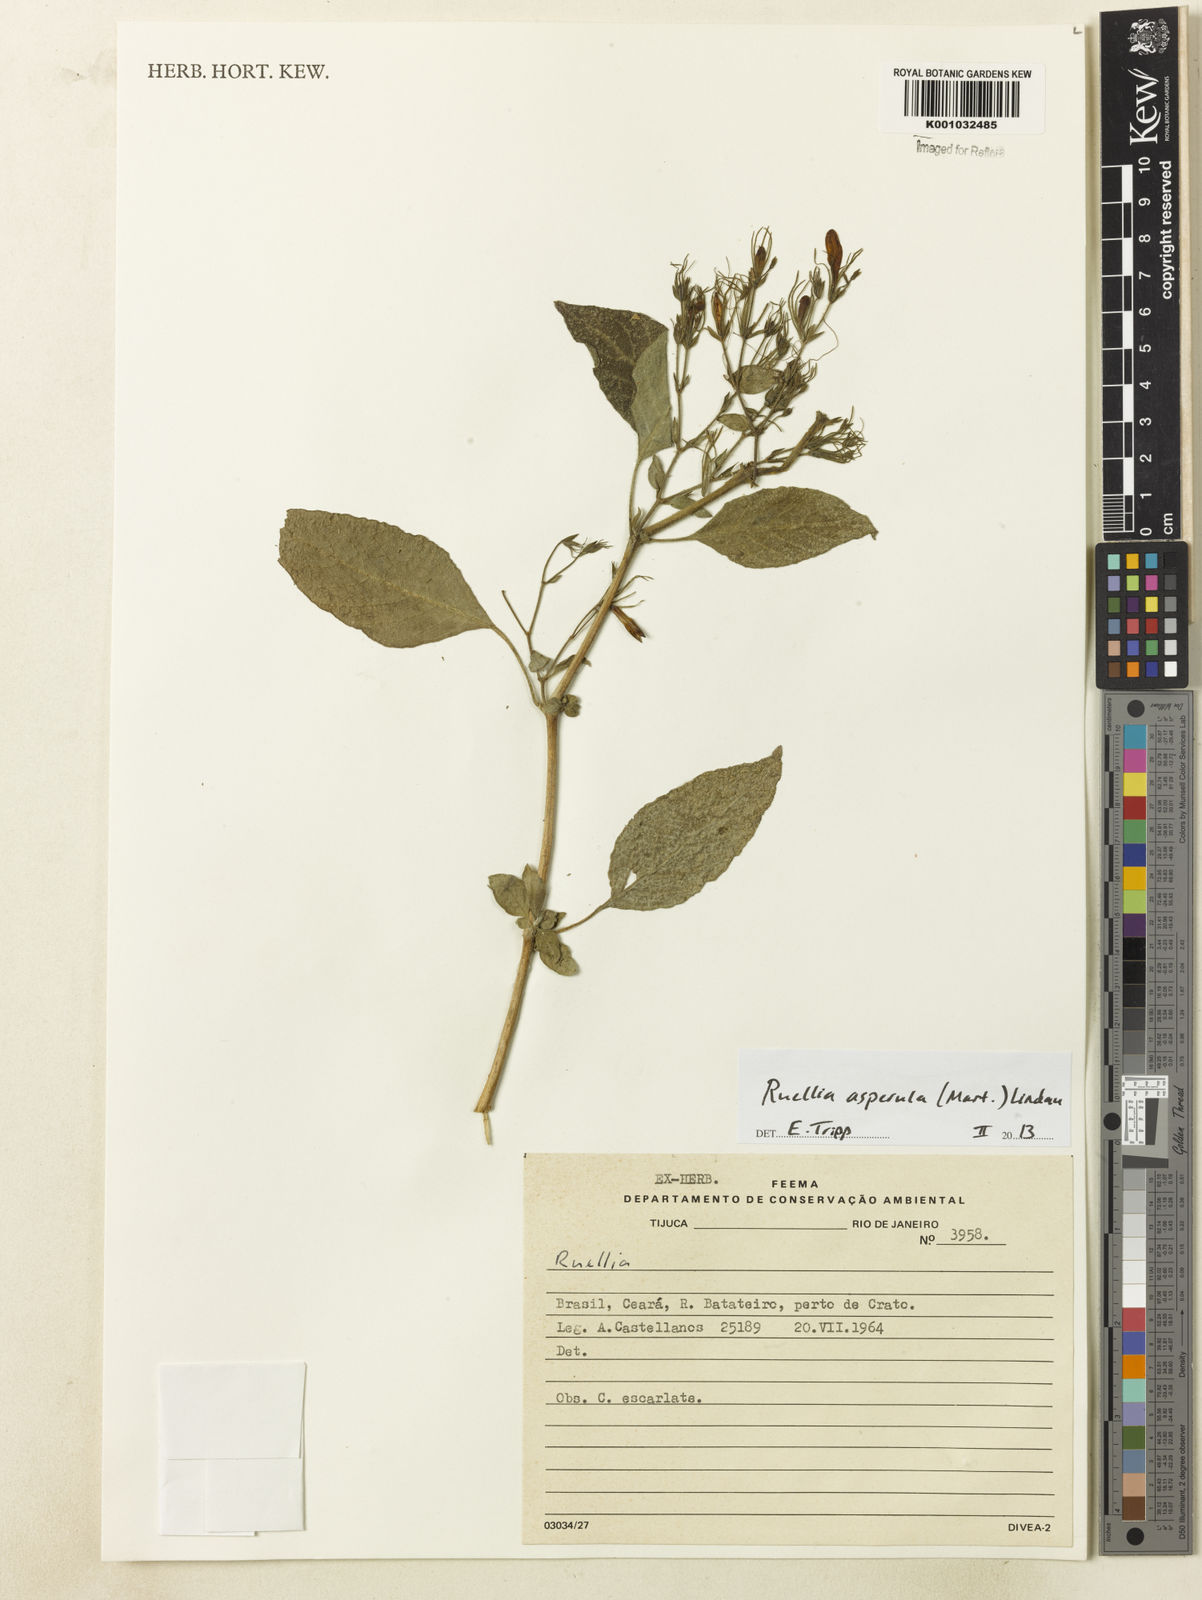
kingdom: Plantae
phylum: Tracheophyta
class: Magnoliopsida
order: Lamiales
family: Acanthaceae
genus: Ruellia
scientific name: Ruellia asperula
